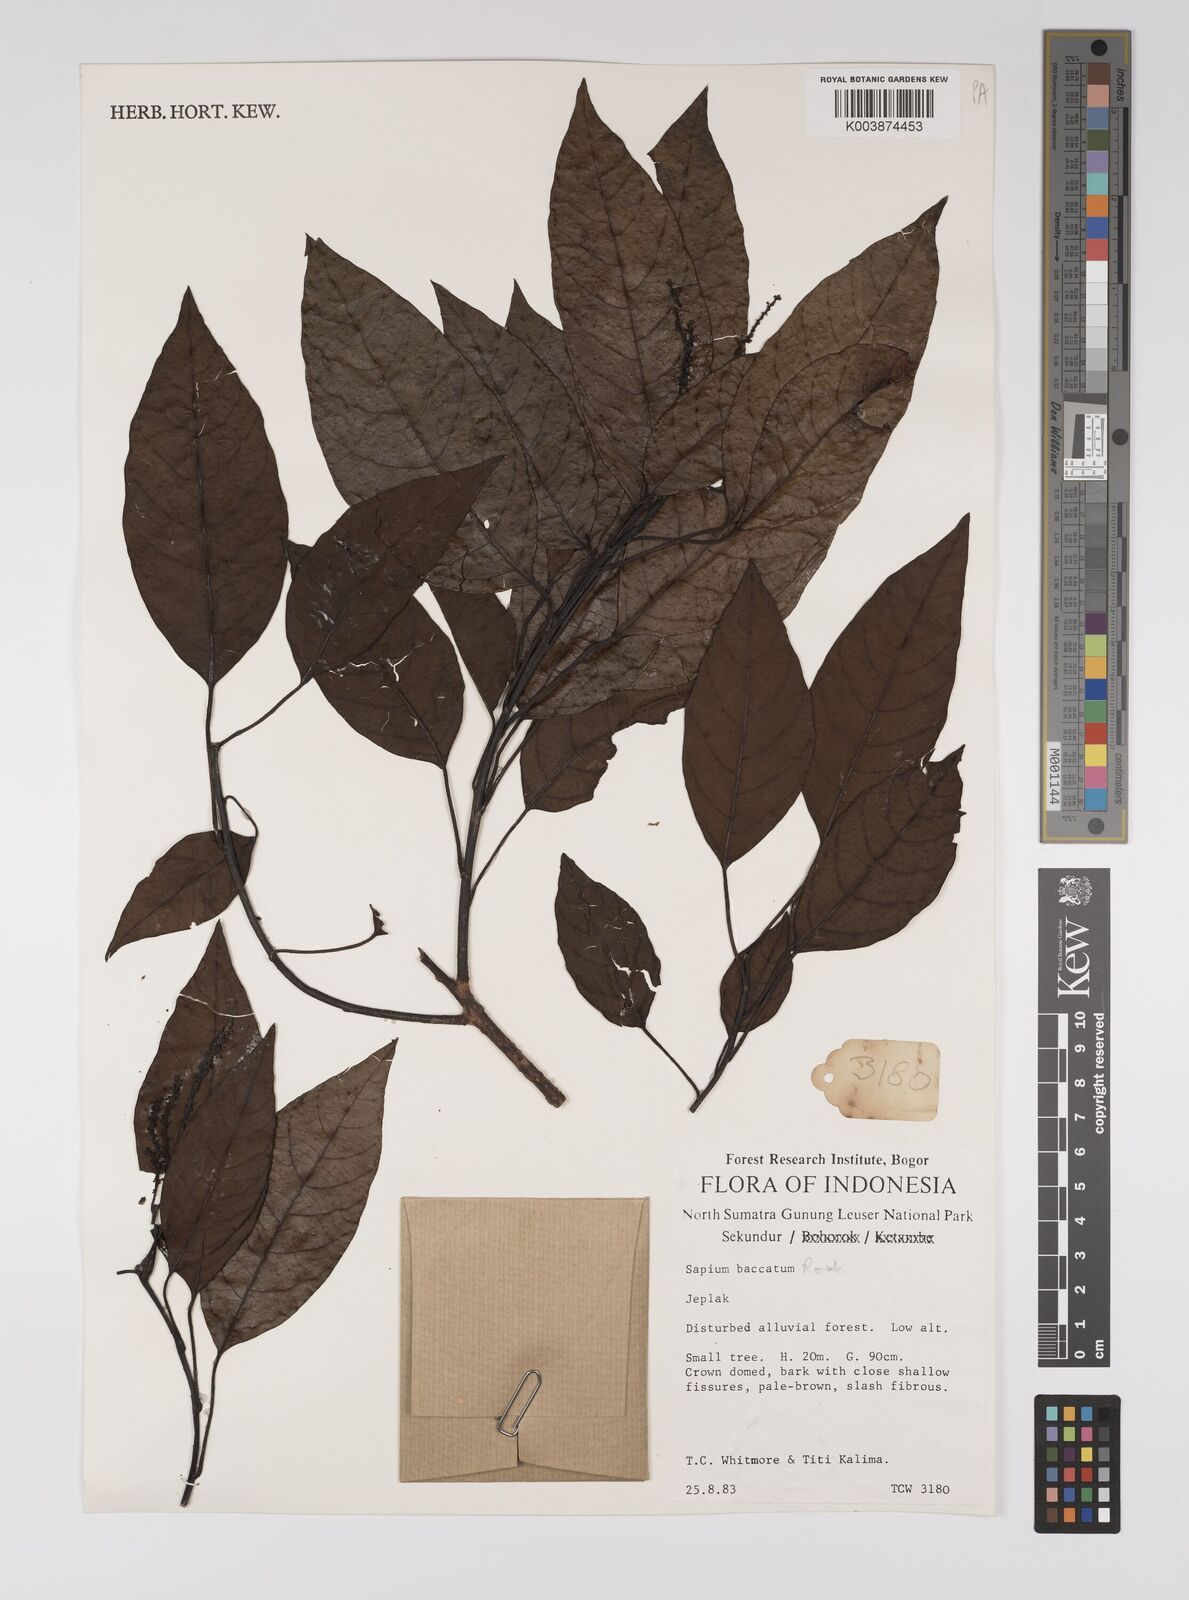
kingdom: Plantae
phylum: Tracheophyta
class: Magnoliopsida
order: Malpighiales
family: Euphorbiaceae
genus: Balakata
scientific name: Balakata baccata
